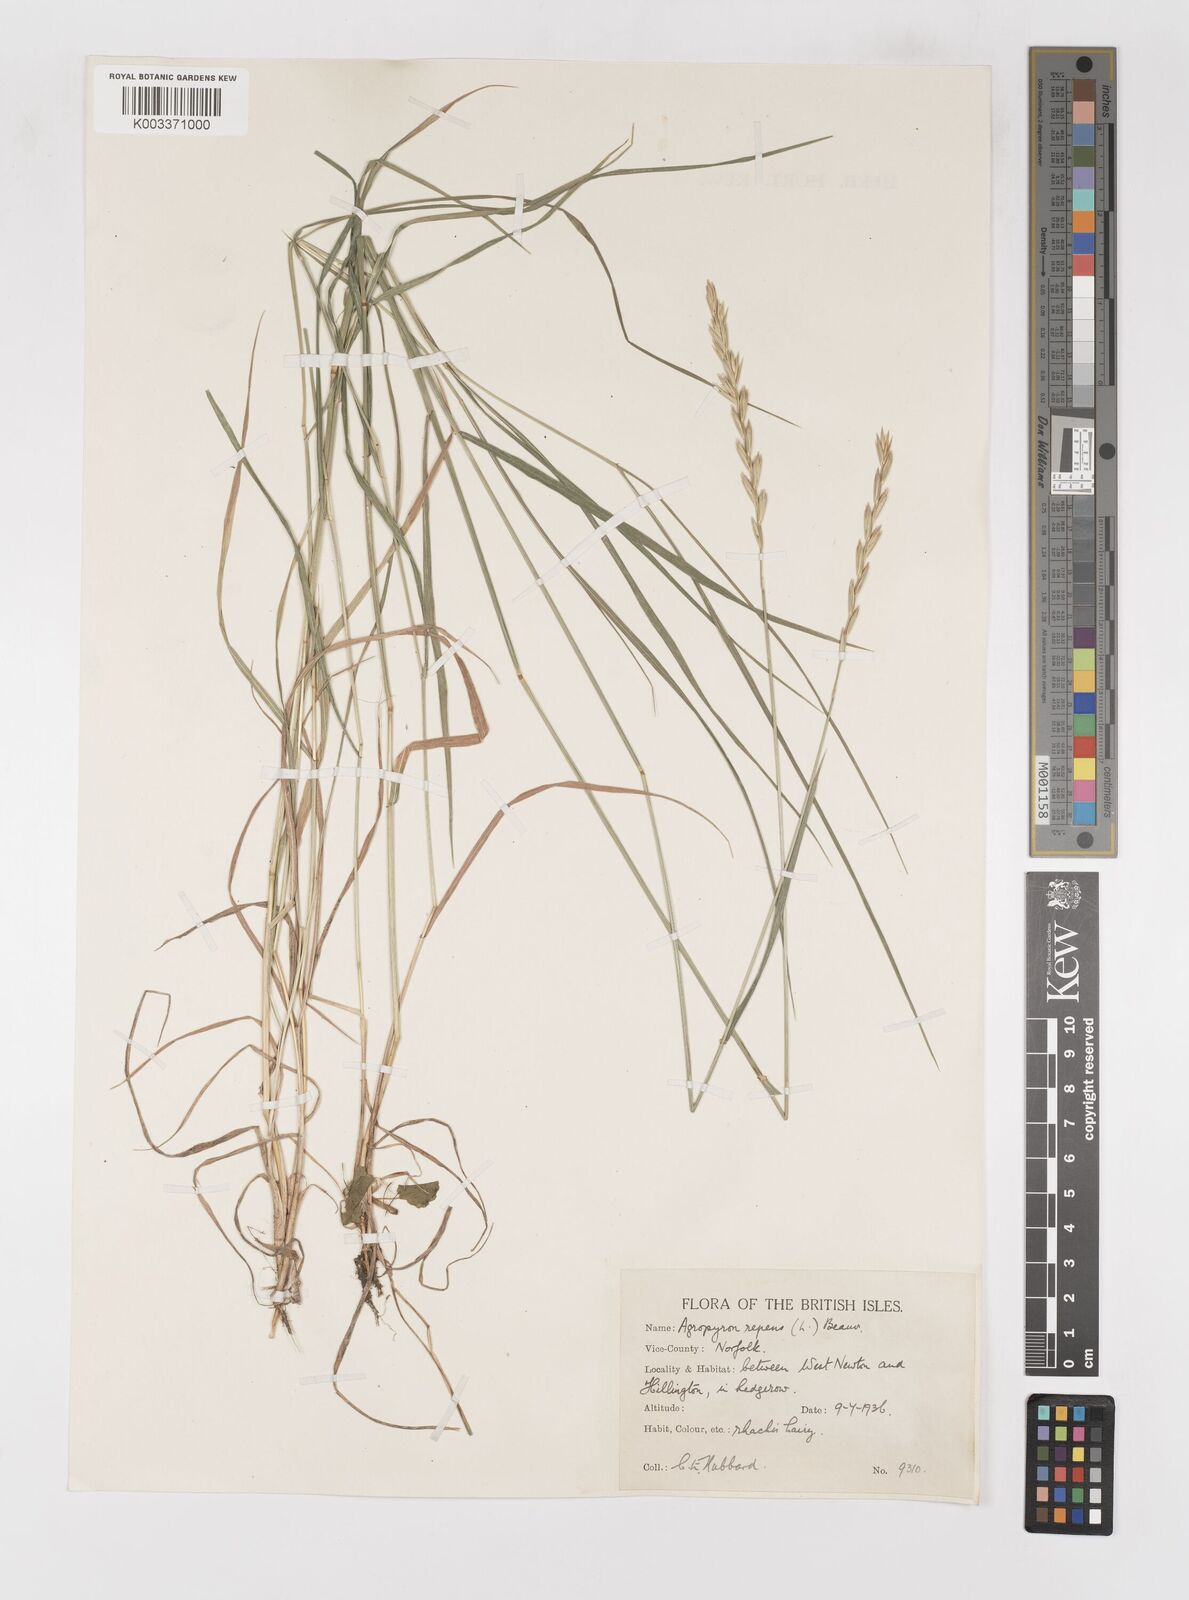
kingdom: Plantae
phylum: Tracheophyta
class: Liliopsida
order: Poales
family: Poaceae
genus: Elymus
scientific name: Elymus repens
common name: Quackgrass
